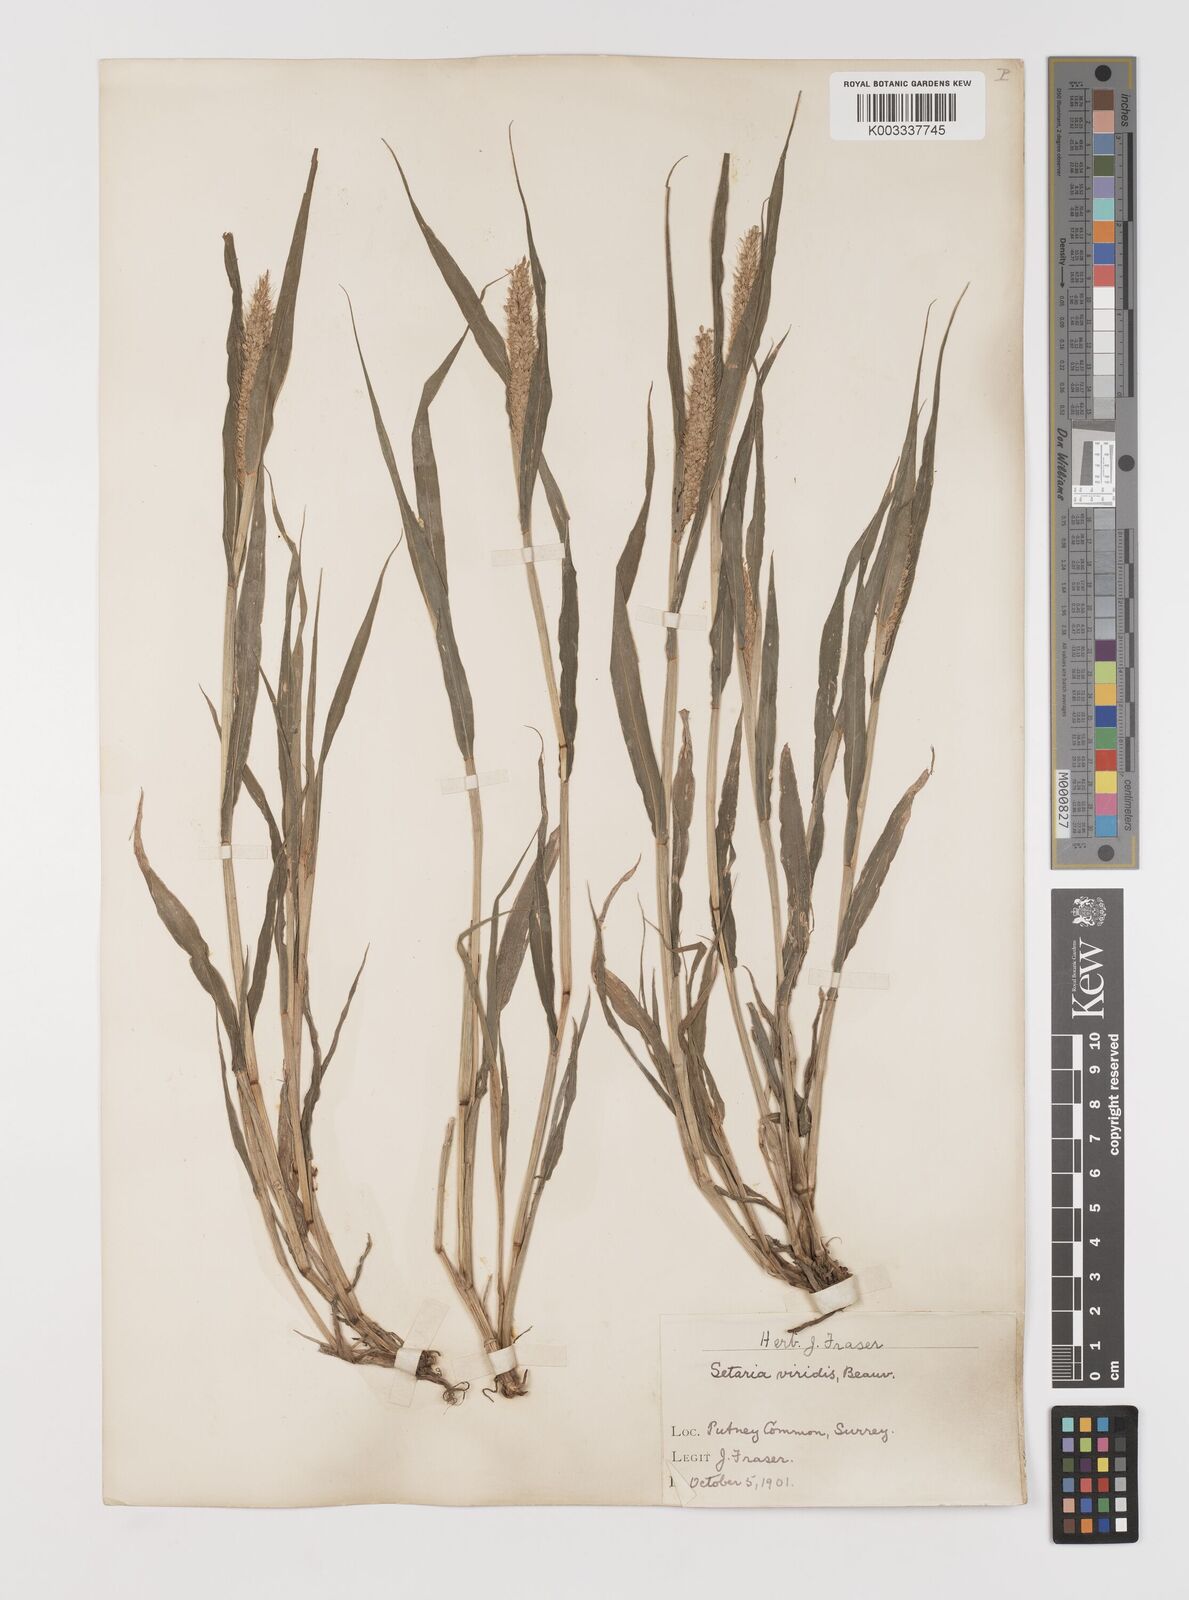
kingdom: Plantae
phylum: Tracheophyta
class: Liliopsida
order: Poales
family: Poaceae
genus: Setaria
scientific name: Setaria viridis
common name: Green bristlegrass
